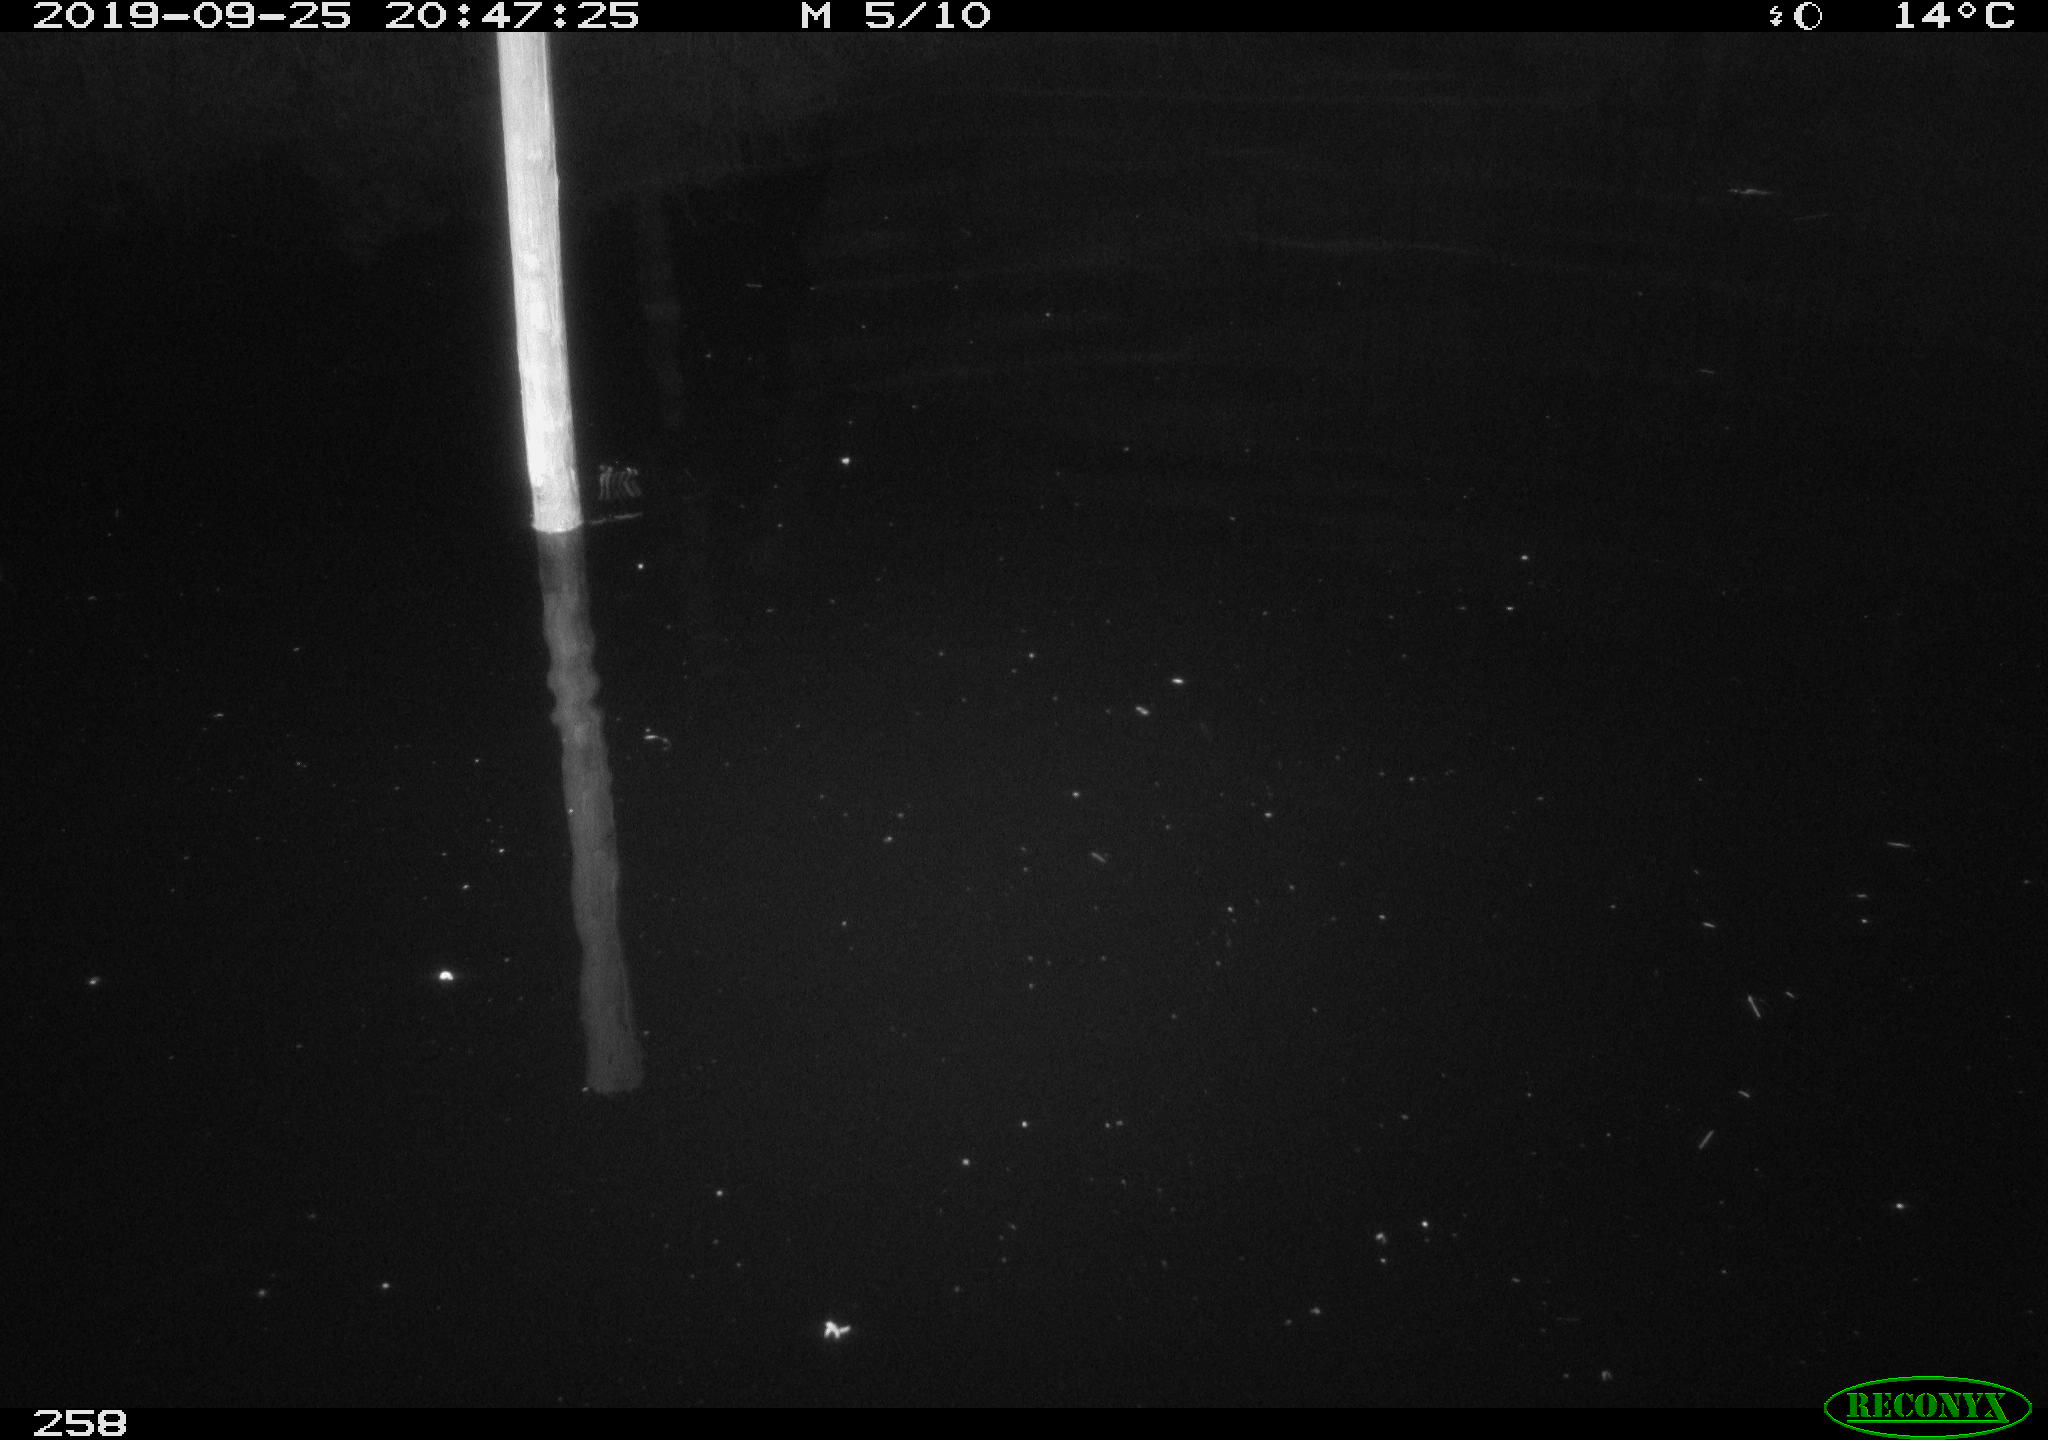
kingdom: Animalia
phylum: Chordata
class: Aves
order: Anseriformes
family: Anatidae
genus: Anas
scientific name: Anas platyrhynchos
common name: Mallard
